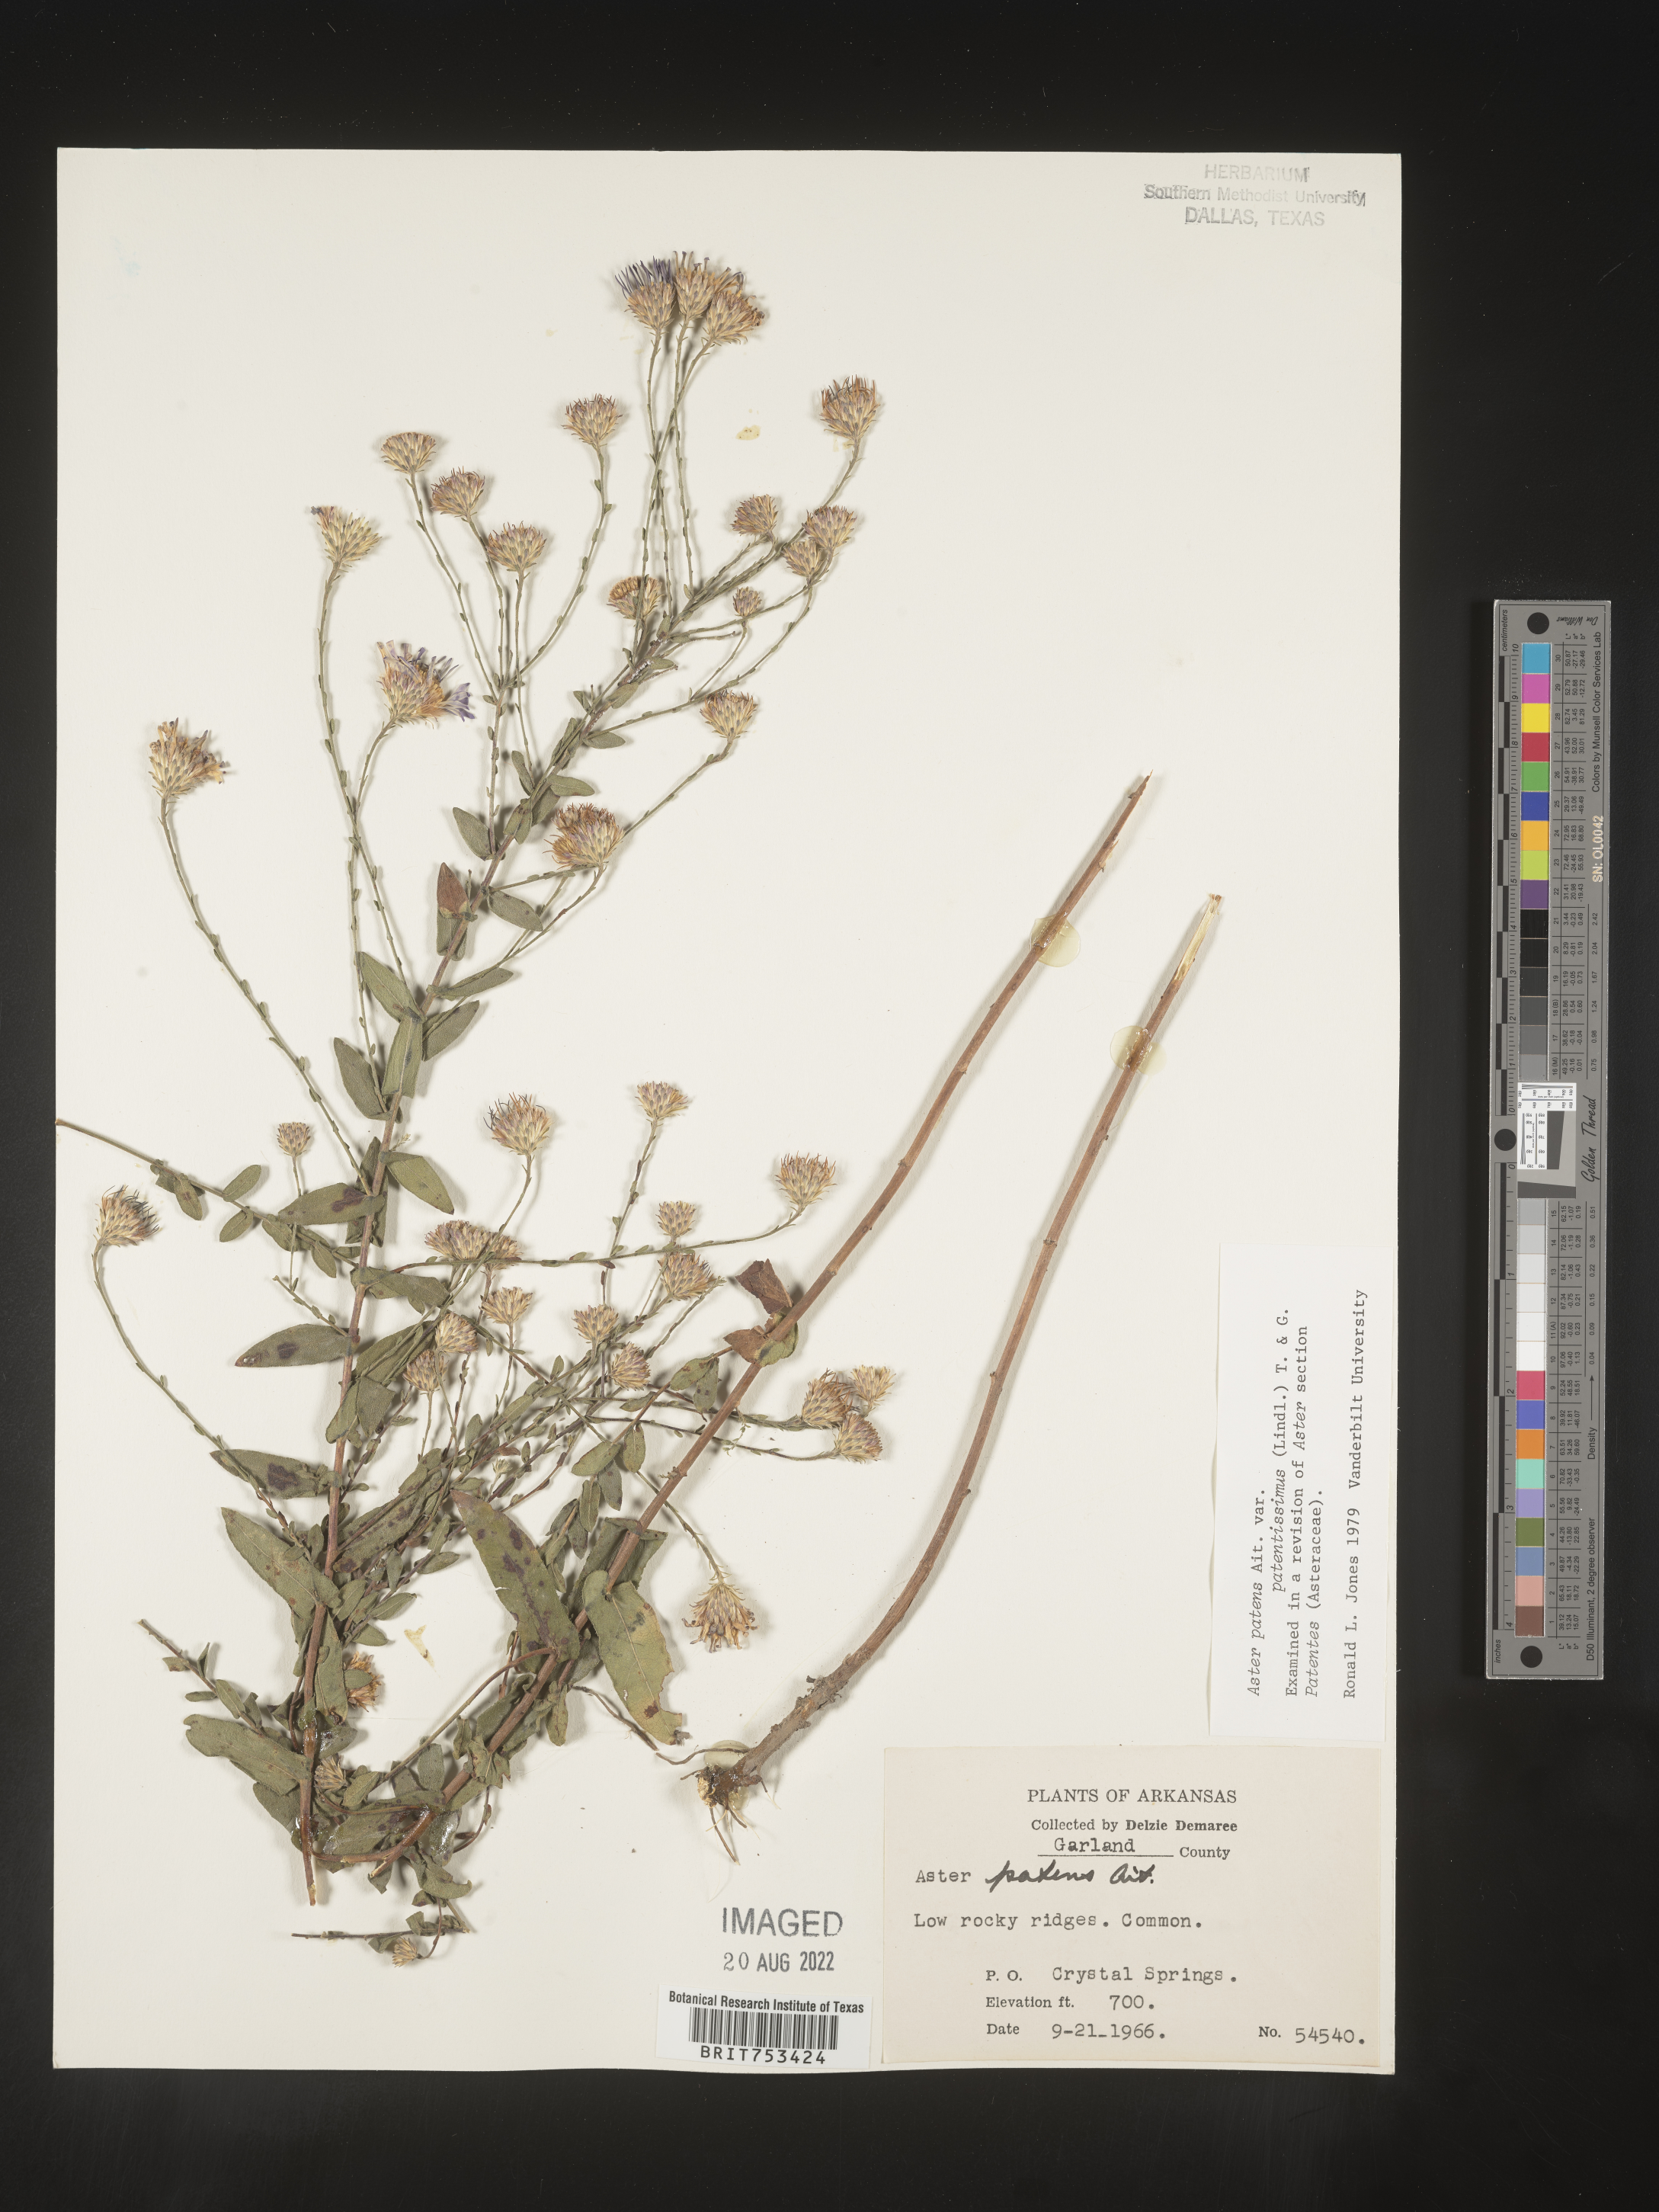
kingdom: Plantae
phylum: Tracheophyta
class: Magnoliopsida
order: Asterales
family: Asteraceae
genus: Symphyotrichum
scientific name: Symphyotrichum patens
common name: Late purple aster
